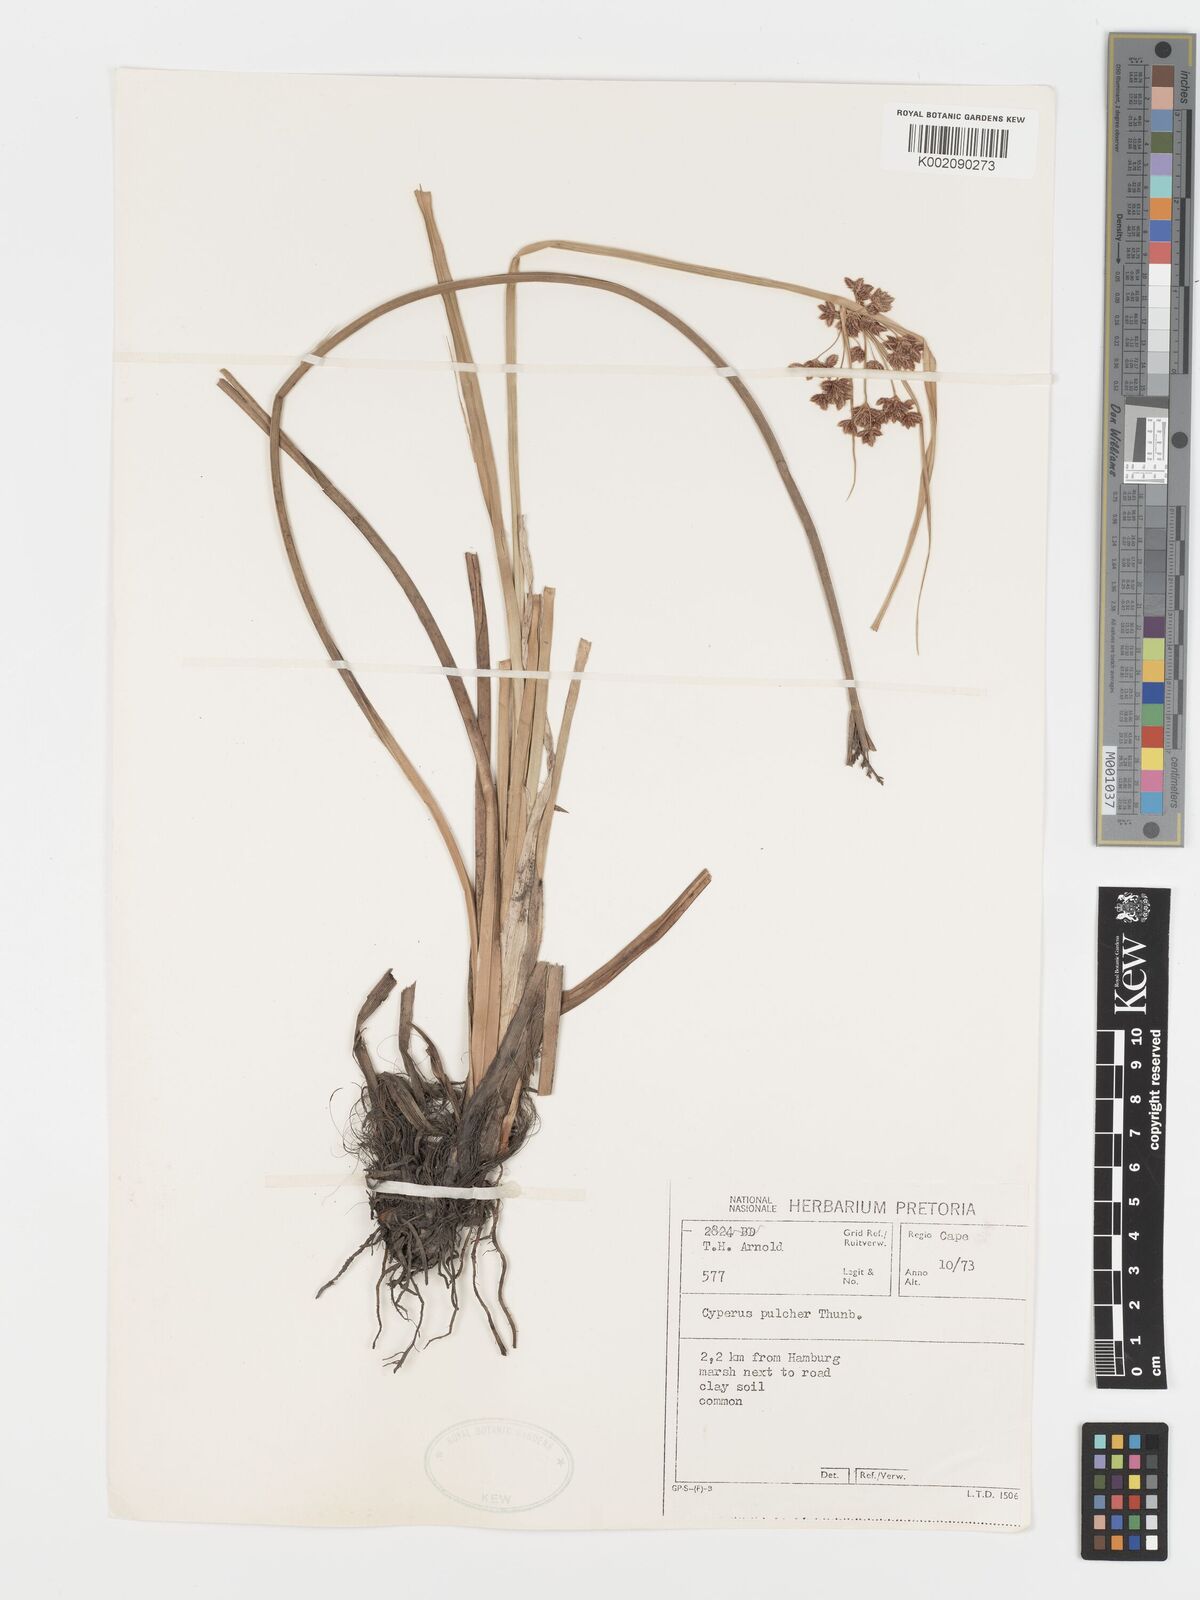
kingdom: Plantae
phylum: Tracheophyta
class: Liliopsida
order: Poales
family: Cyperaceae
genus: Cyperus
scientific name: Cyperus pulcher
